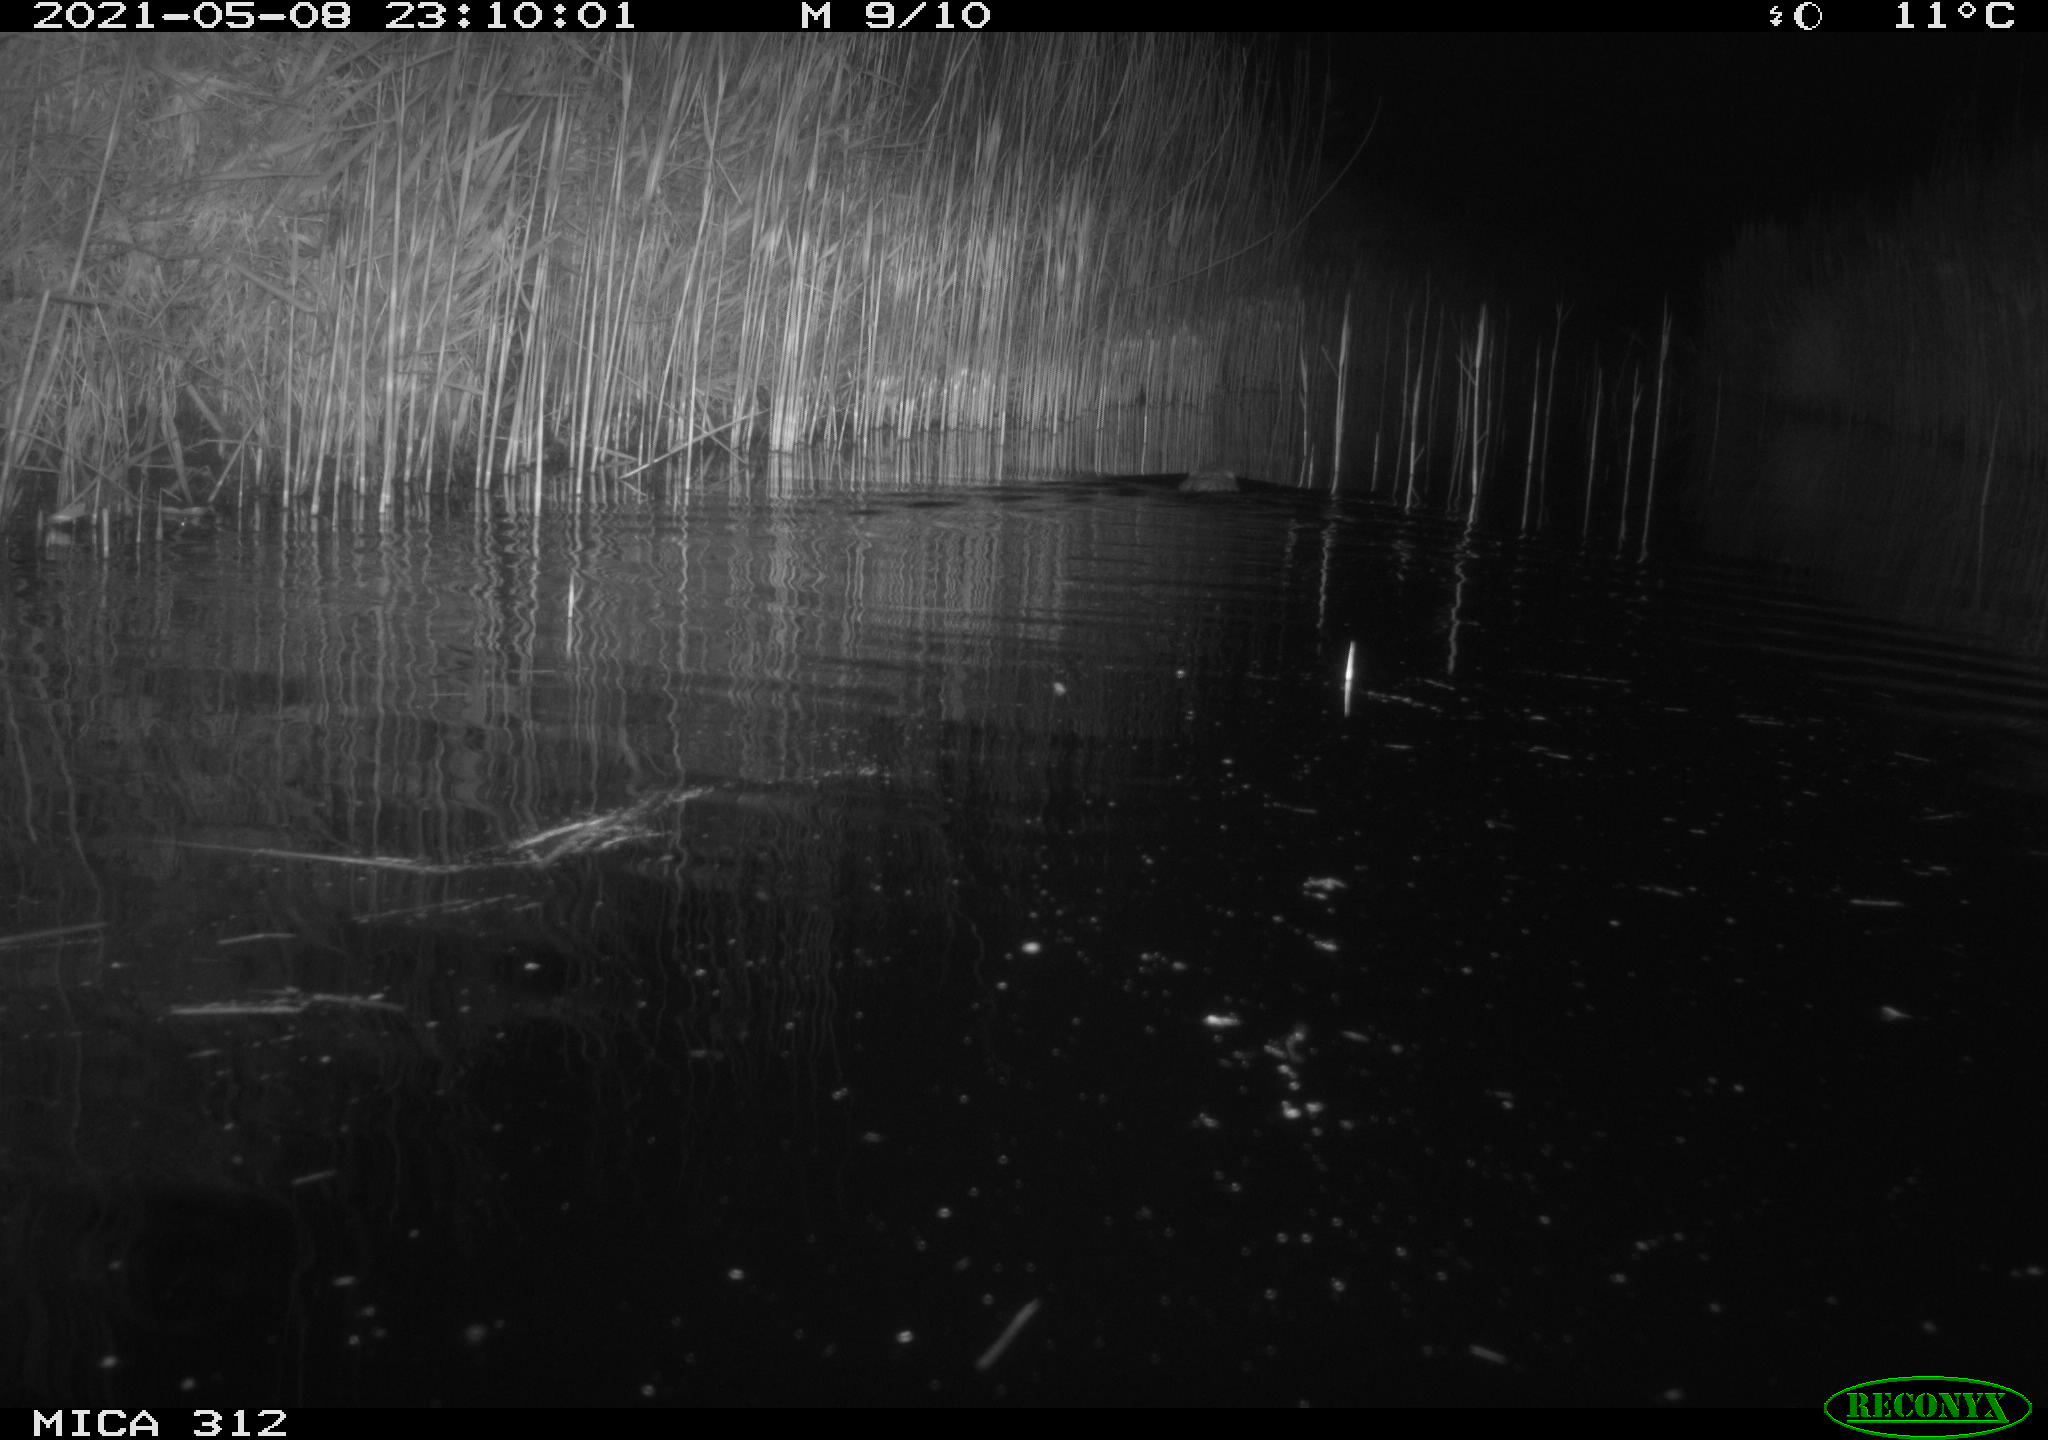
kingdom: Animalia
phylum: Chordata
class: Mammalia
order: Rodentia
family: Cricetidae
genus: Ondatra
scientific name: Ondatra zibethicus
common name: Muskrat
